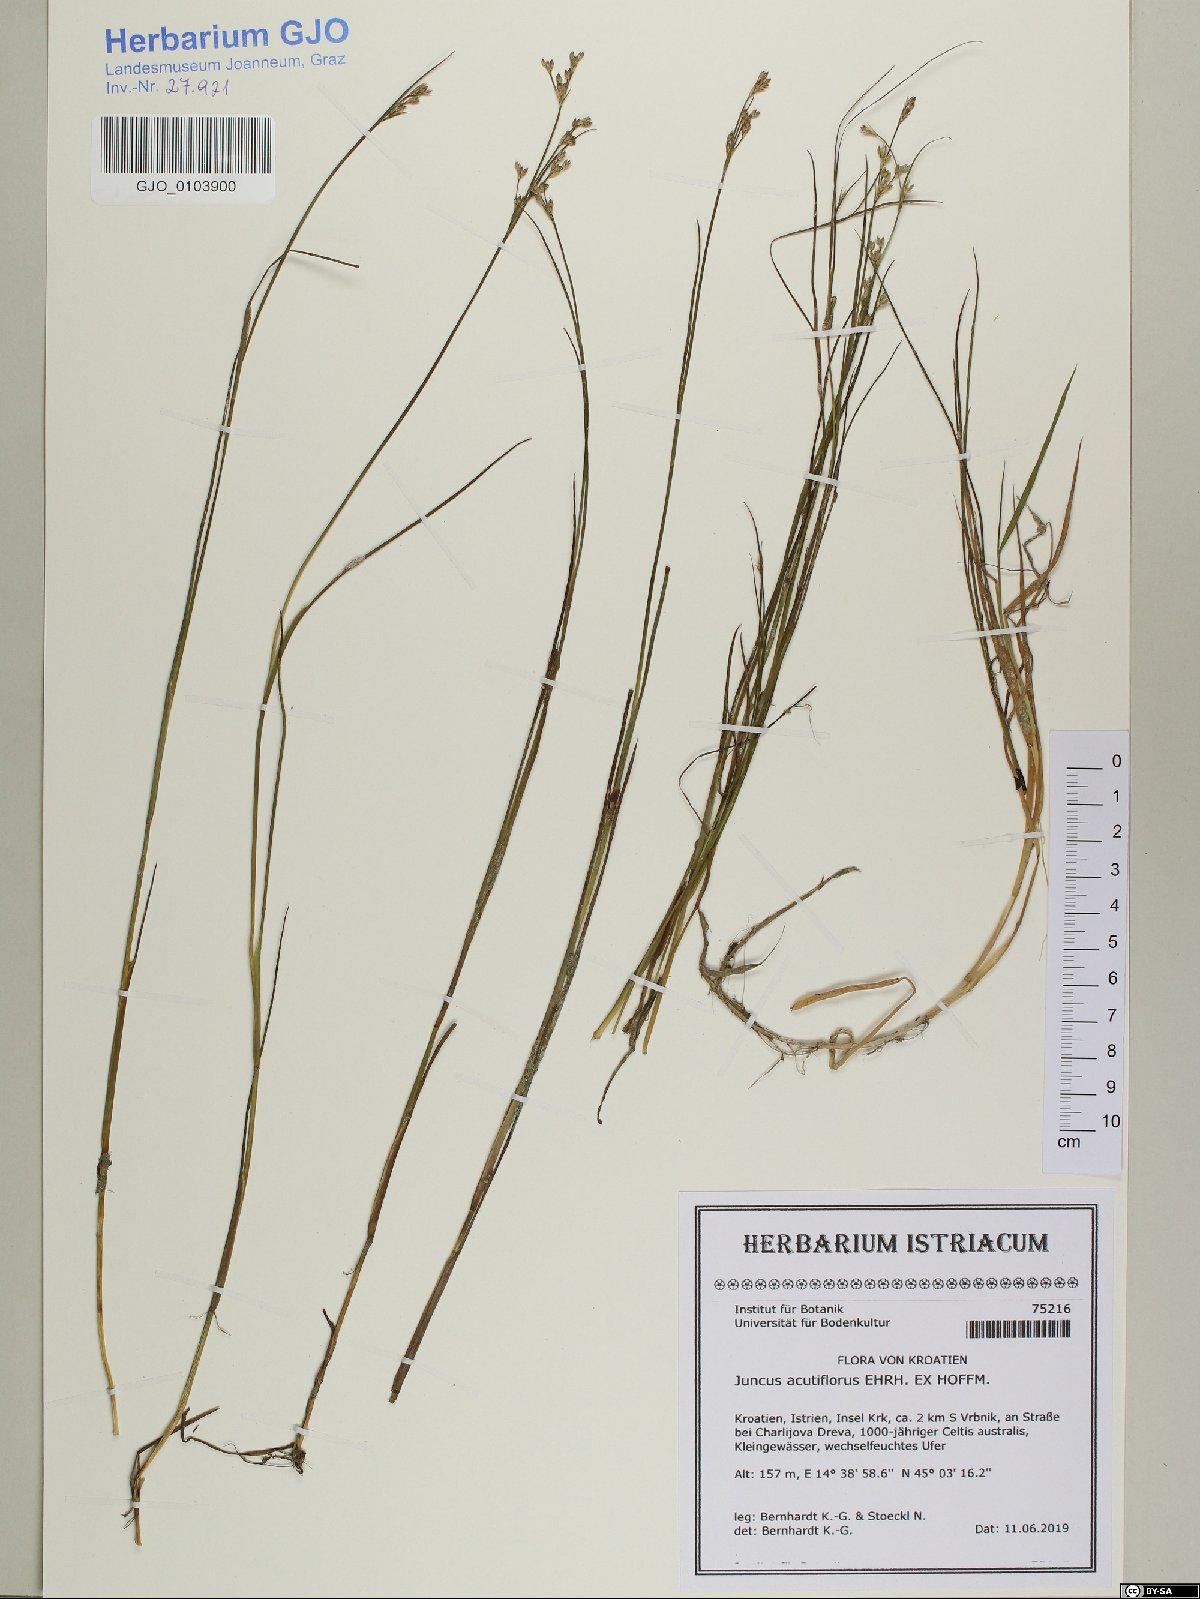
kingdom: Plantae
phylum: Tracheophyta
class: Liliopsida
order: Poales
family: Juncaceae
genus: Juncus
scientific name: Juncus acutiflorus
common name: Sharp-flowered rush
